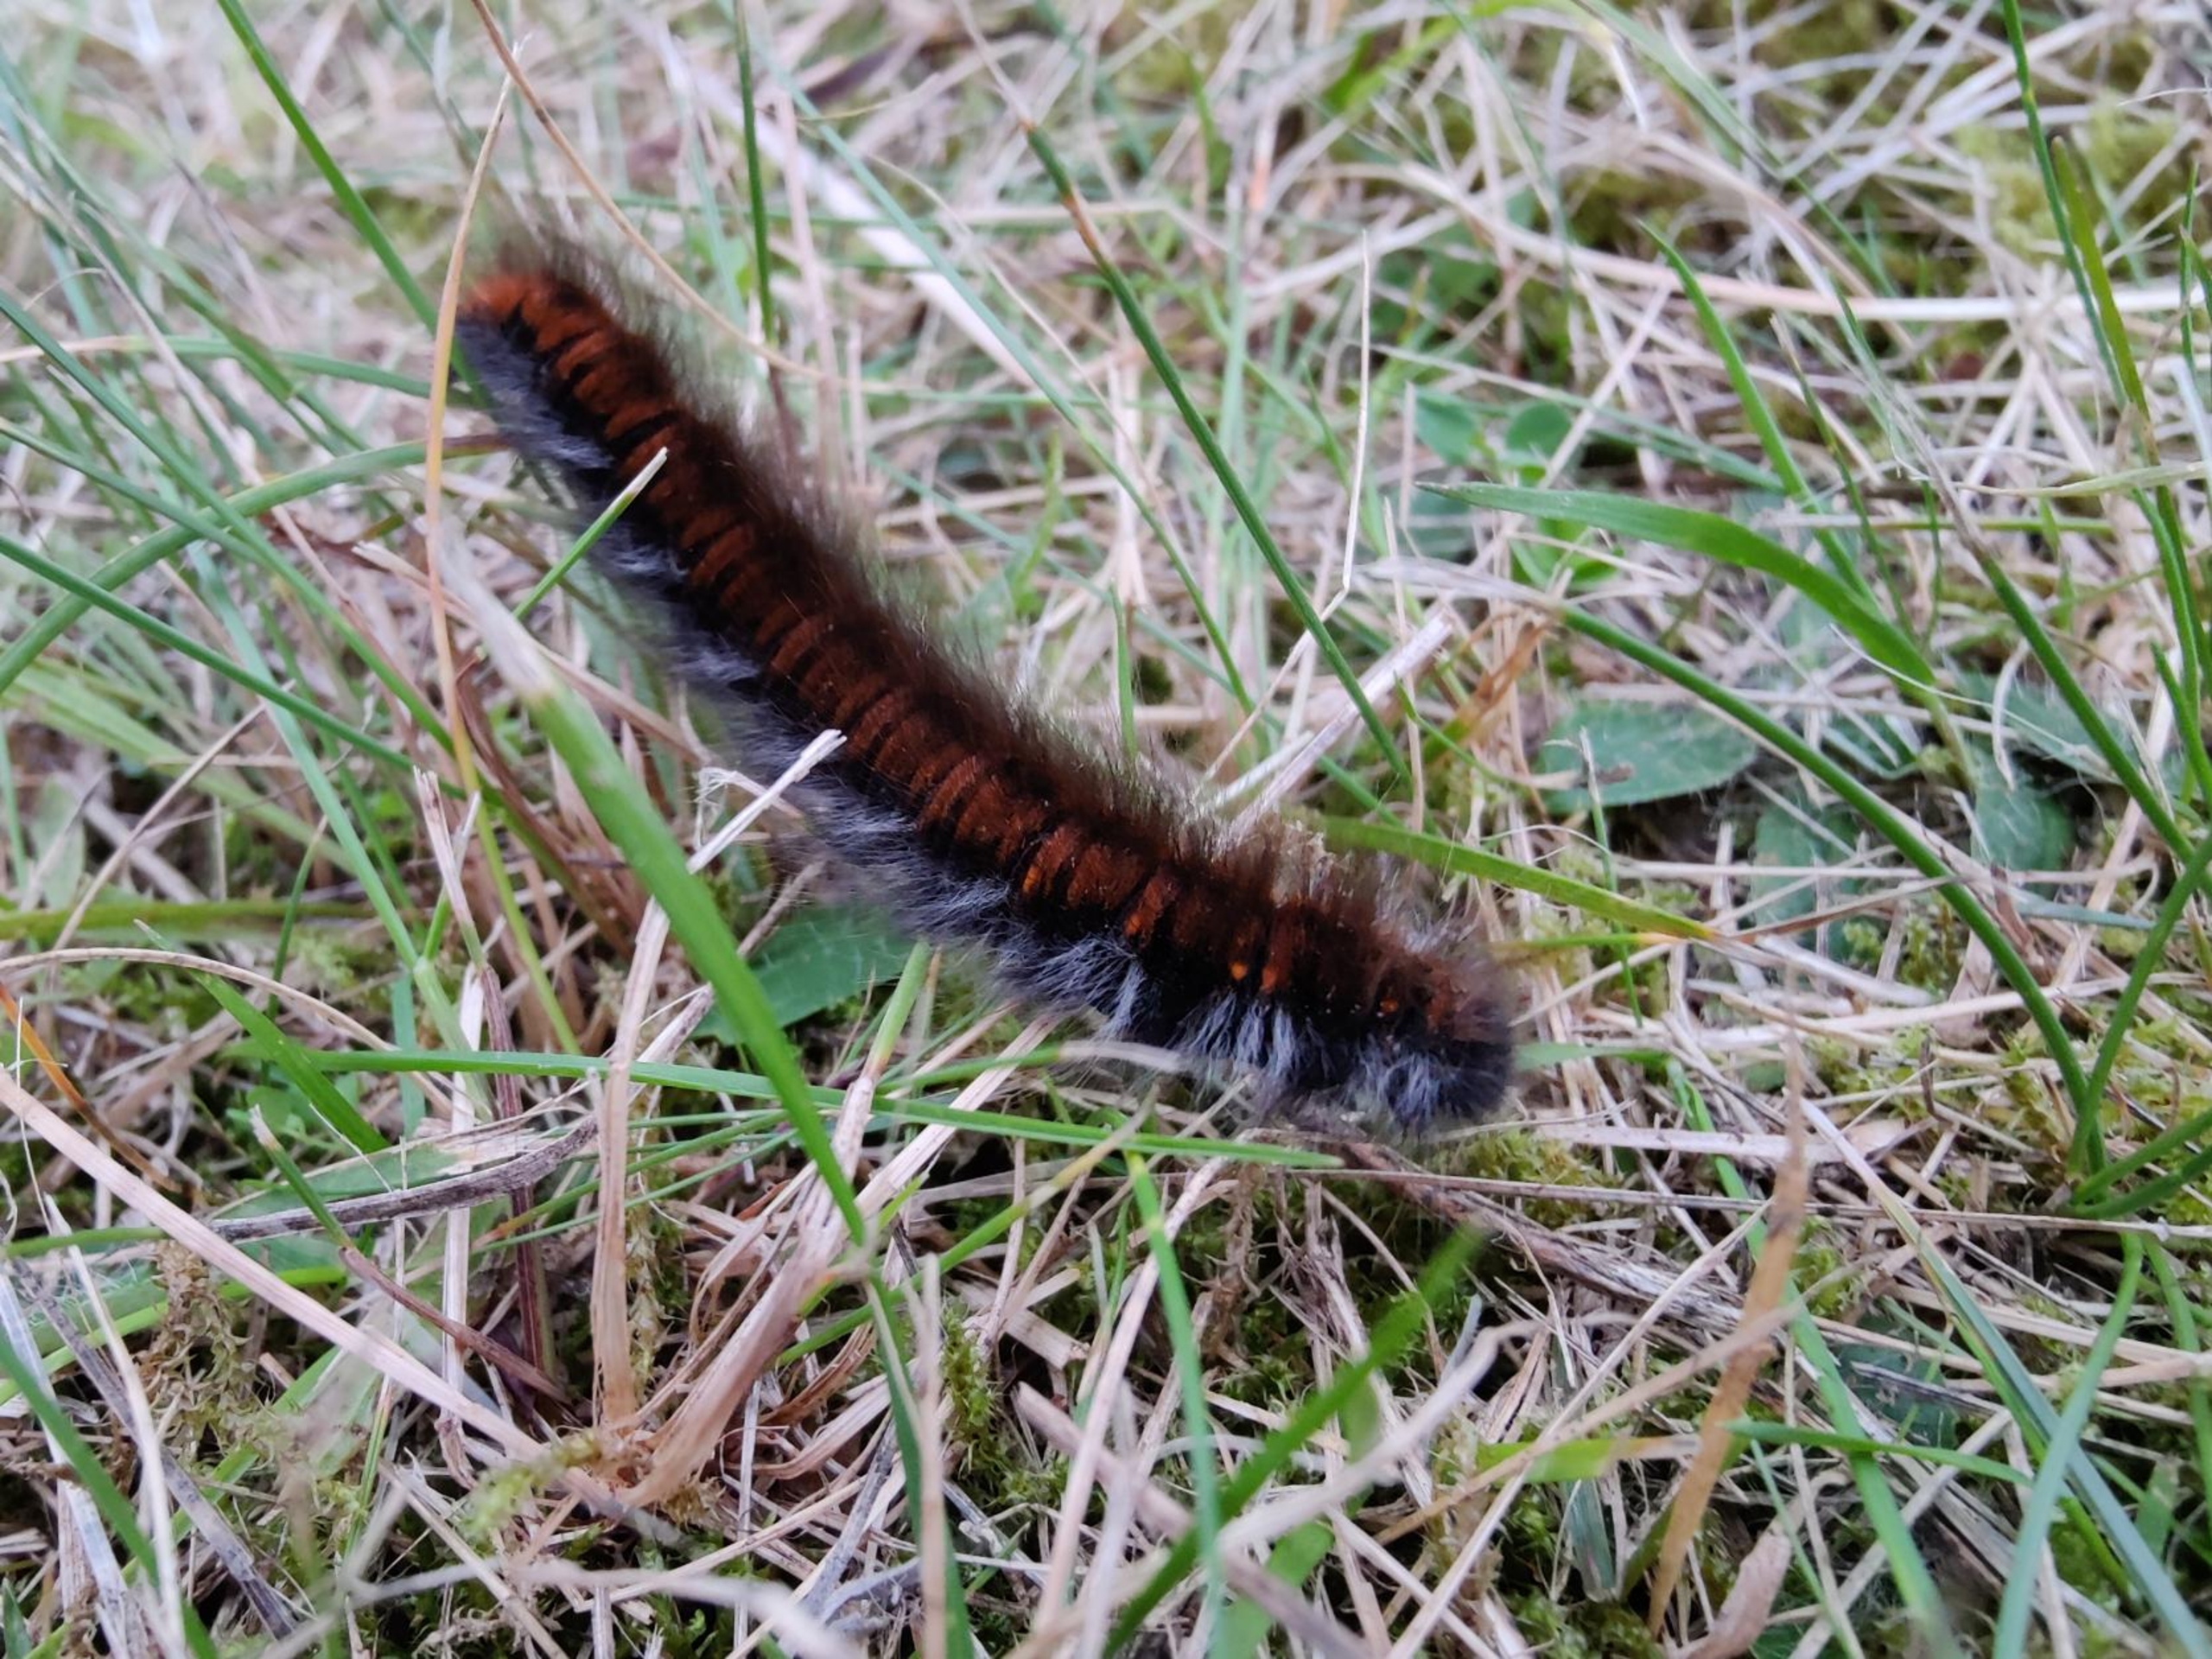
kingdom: Animalia
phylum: Arthropoda
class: Insecta
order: Lepidoptera
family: Lasiocampidae
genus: Macrothylacia
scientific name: Macrothylacia rubi
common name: Brombærspinder
